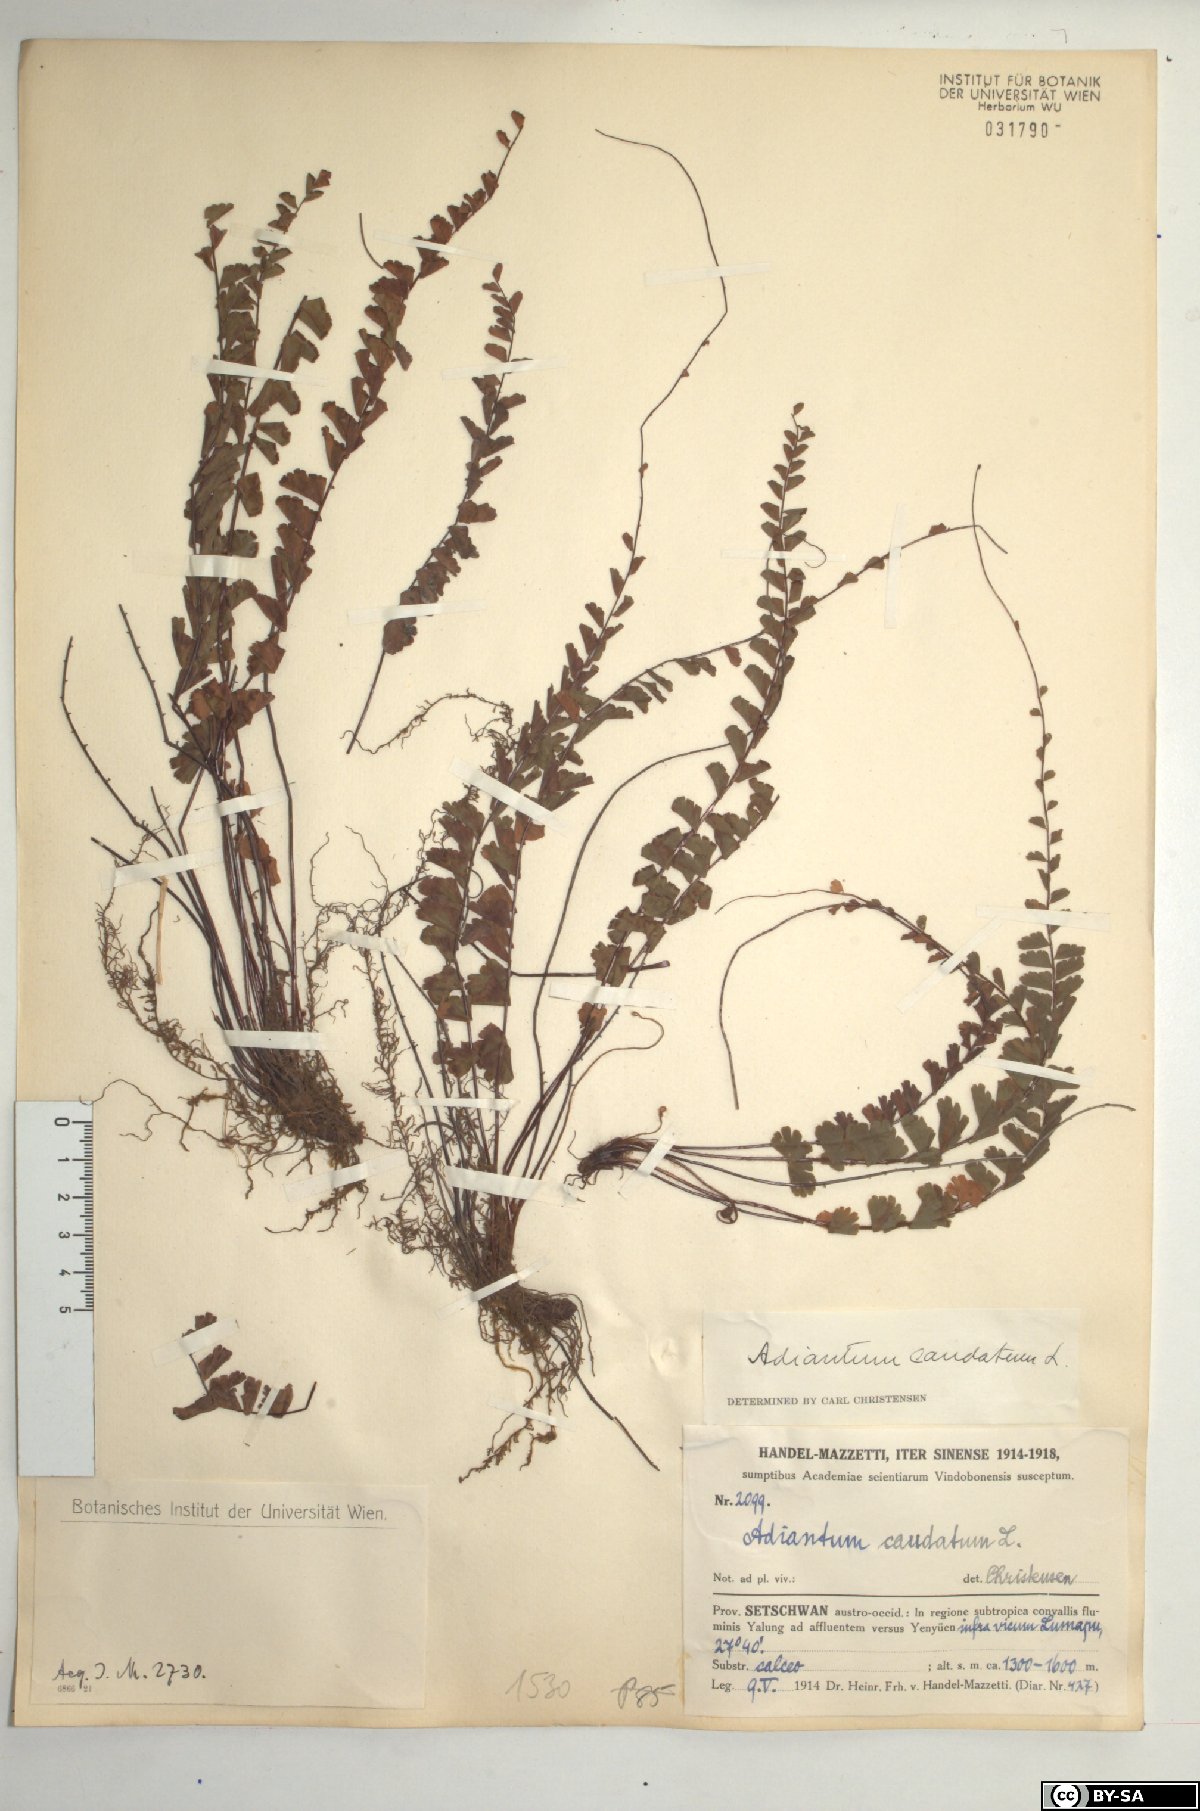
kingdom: Plantae
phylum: Tracheophyta
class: Polypodiopsida
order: Polypodiales
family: Pteridaceae
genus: Adiantum
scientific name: Adiantum caudatum
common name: Tailed maidenhair
